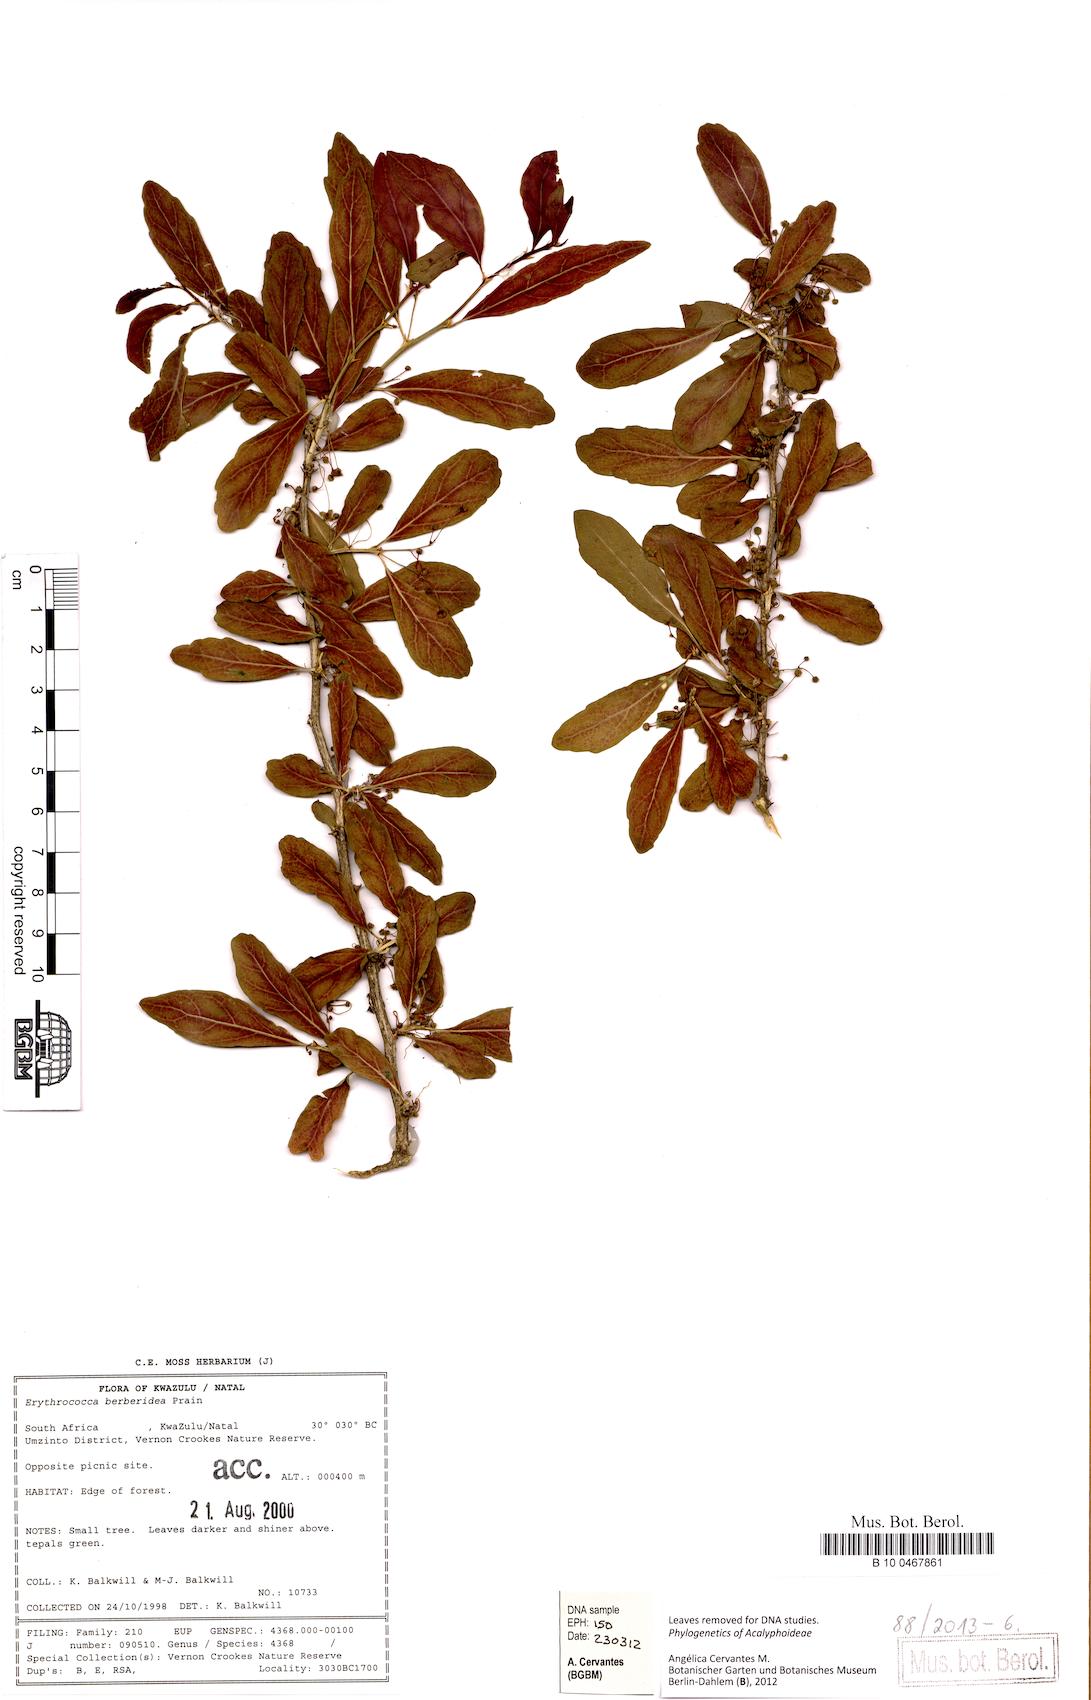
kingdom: Plantae
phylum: Tracheophyta
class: Magnoliopsida
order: Malpighiales
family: Euphorbiaceae
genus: Erythrococca
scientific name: Erythrococca berberidea
